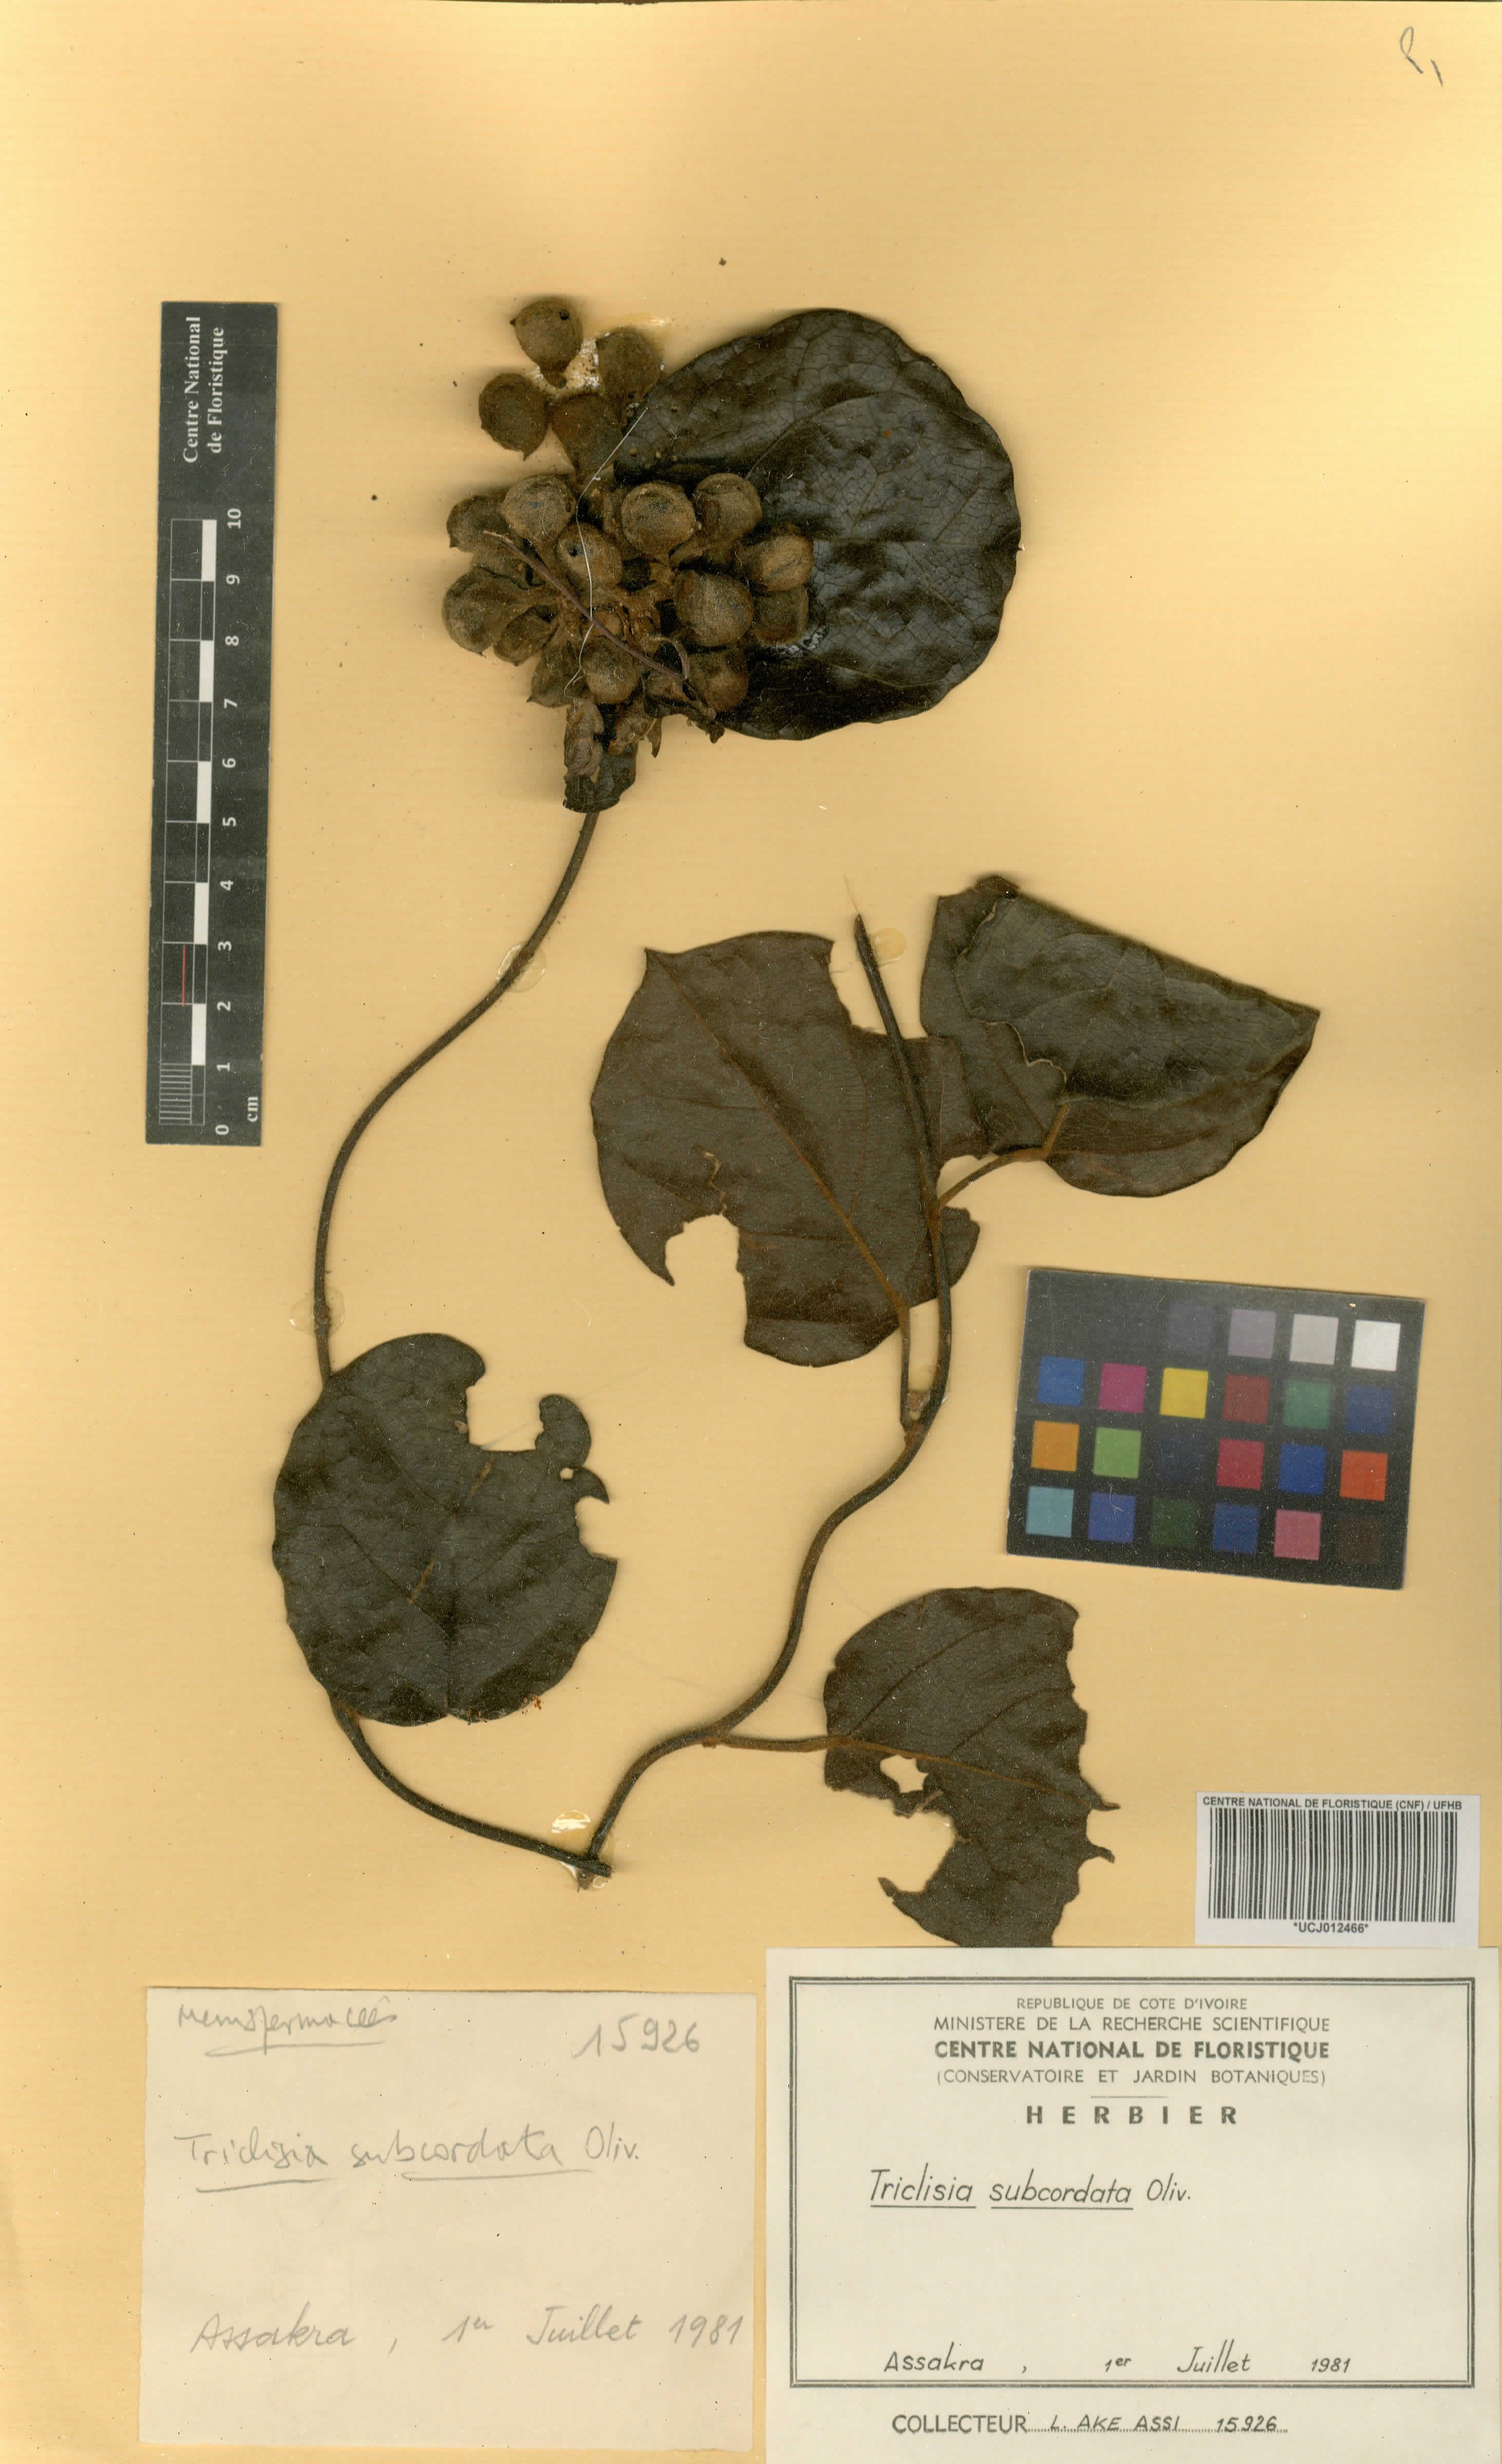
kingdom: Plantae
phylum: Tracheophyta
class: Magnoliopsida
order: Ranunculales
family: Menispermaceae
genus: Triclisia
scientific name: Triclisia subcordata
